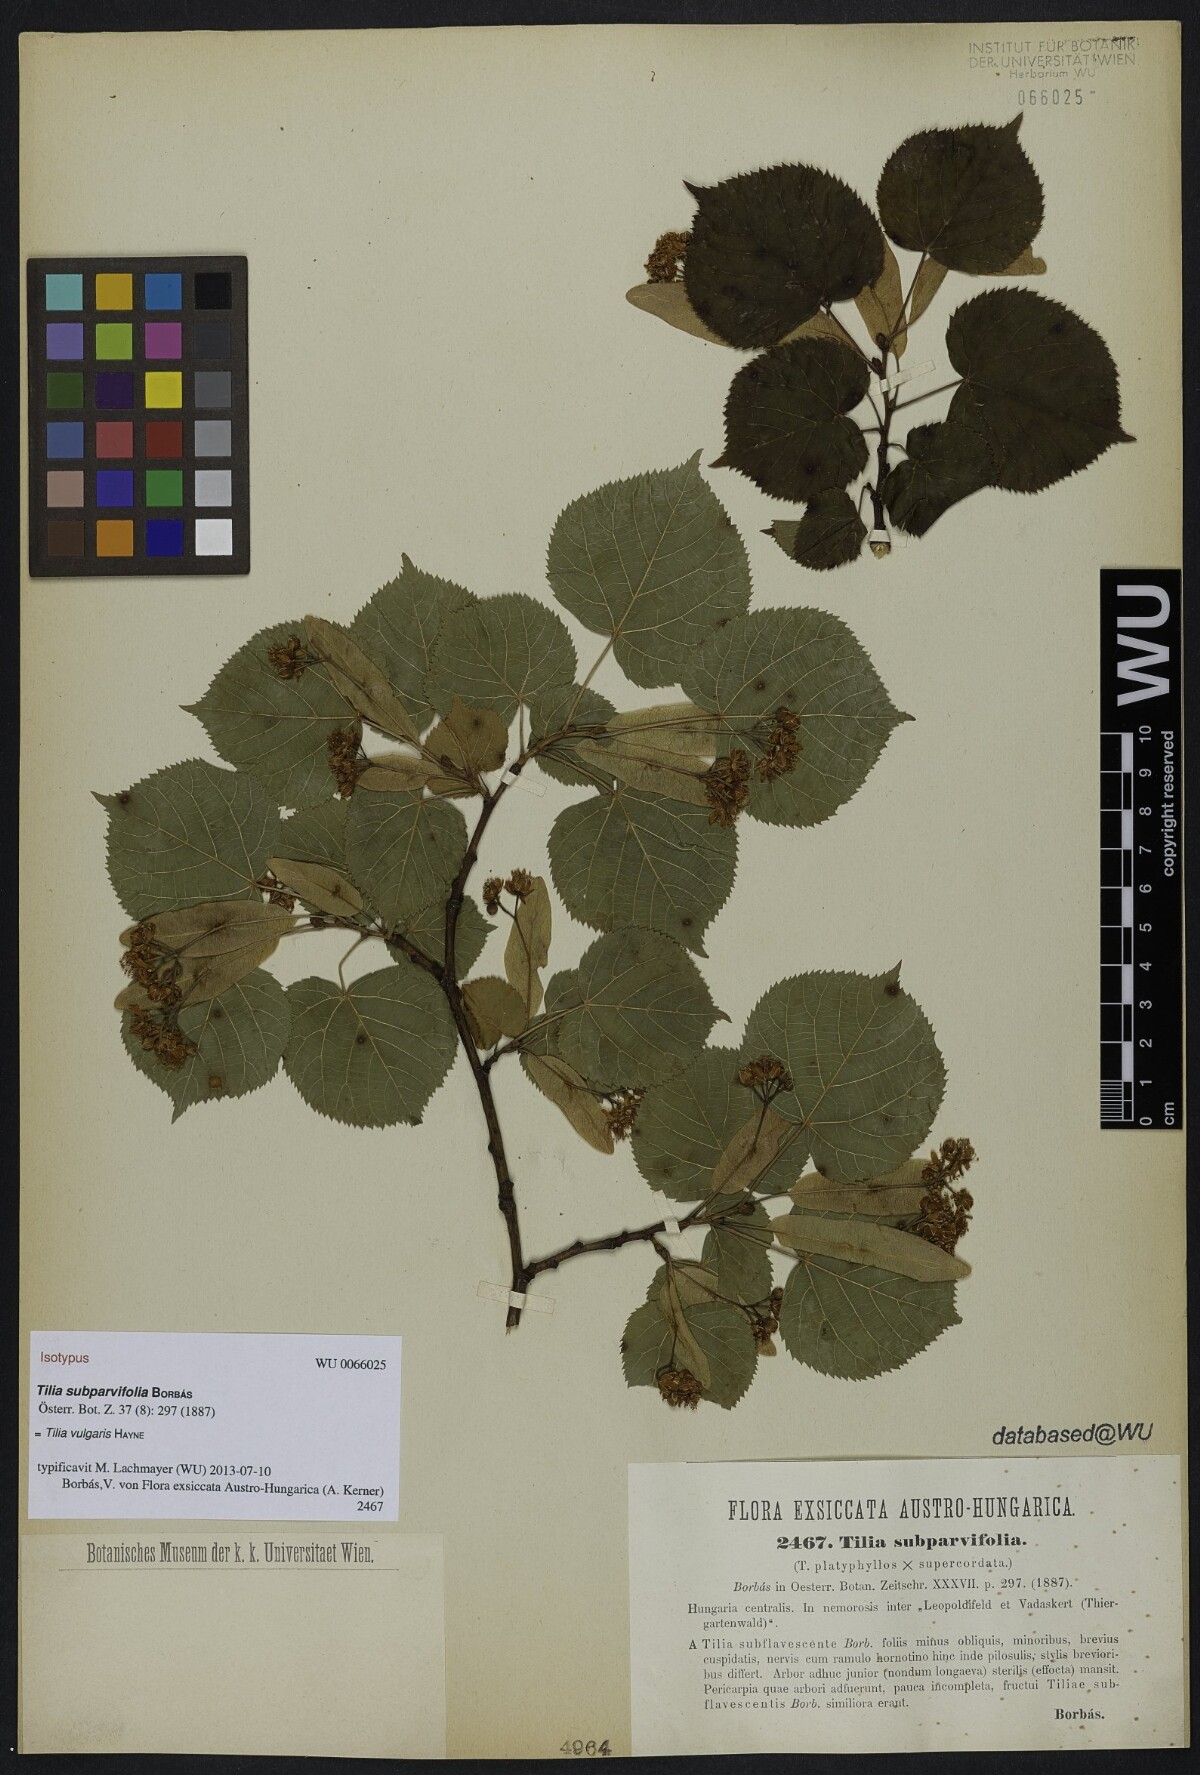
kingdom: Plantae
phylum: Tracheophyta
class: Magnoliopsida
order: Malvales
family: Malvaceae
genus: Tilia
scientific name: Tilia europaea
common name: European linden
